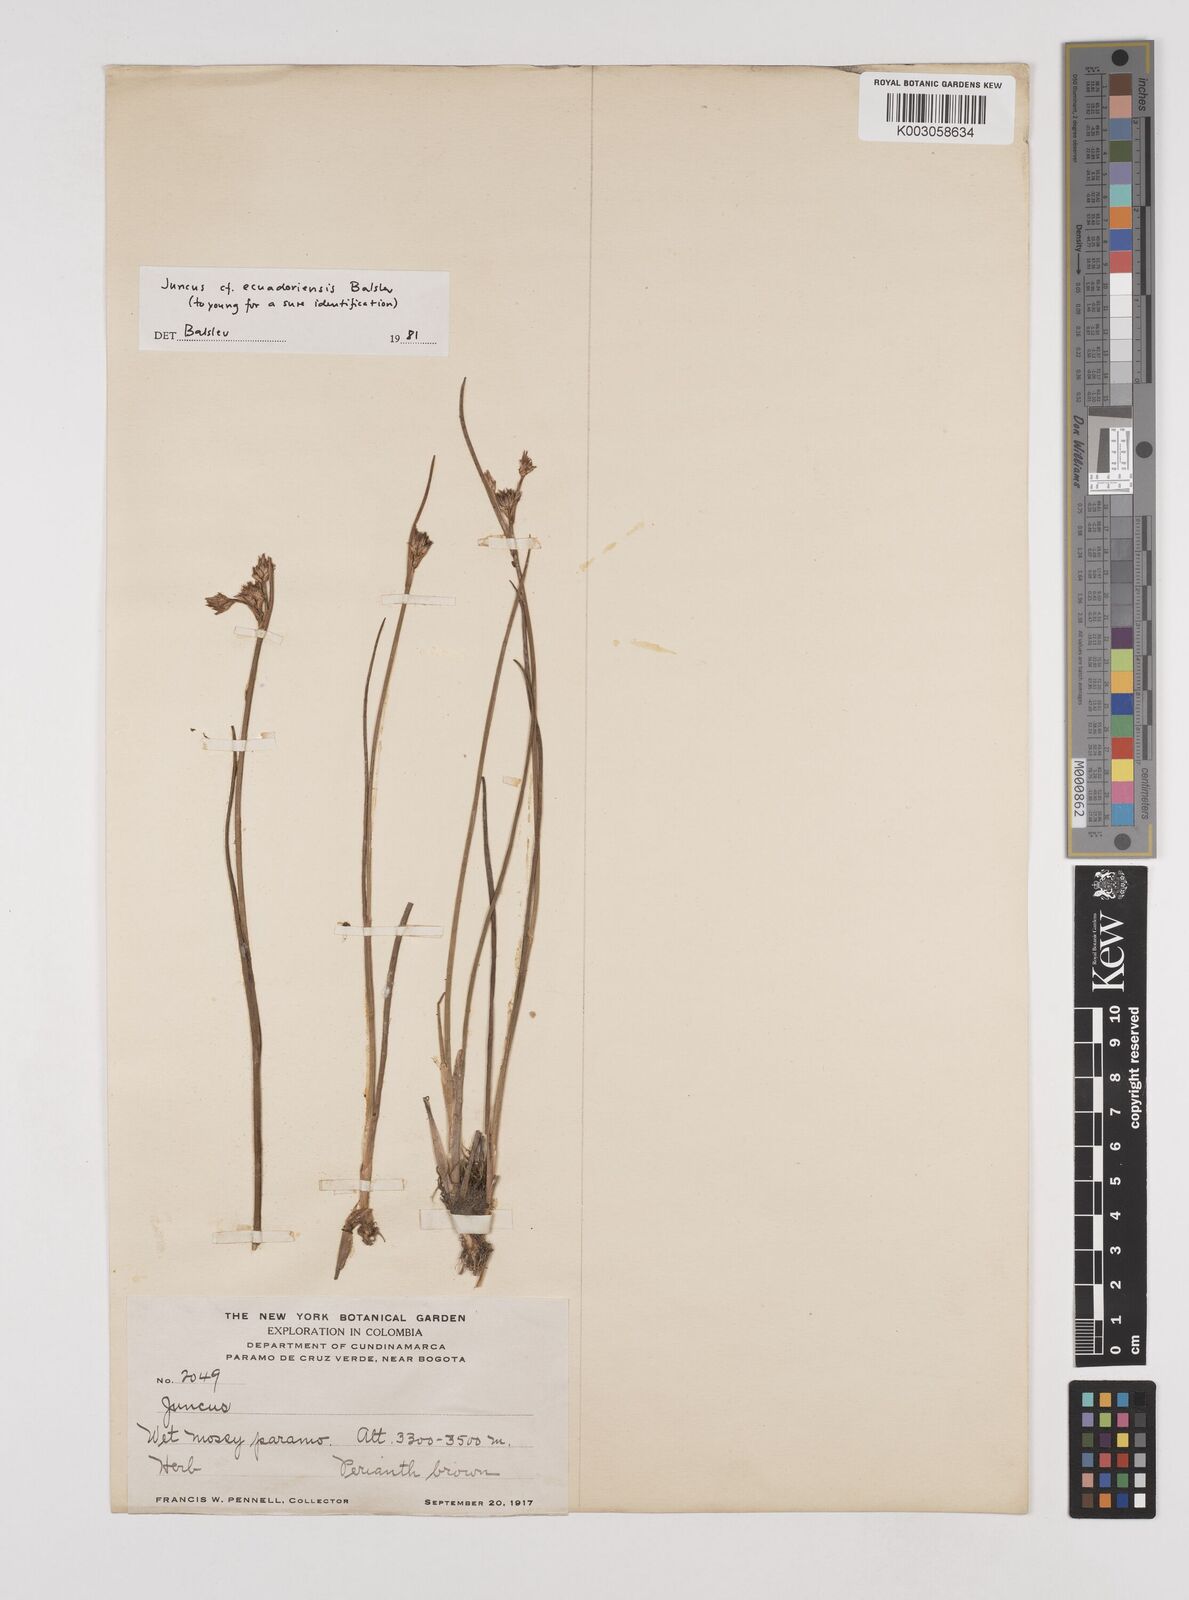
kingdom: Plantae
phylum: Tracheophyta
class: Liliopsida
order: Poales
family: Juncaceae
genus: Juncus
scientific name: Juncus ecuadoriensis
